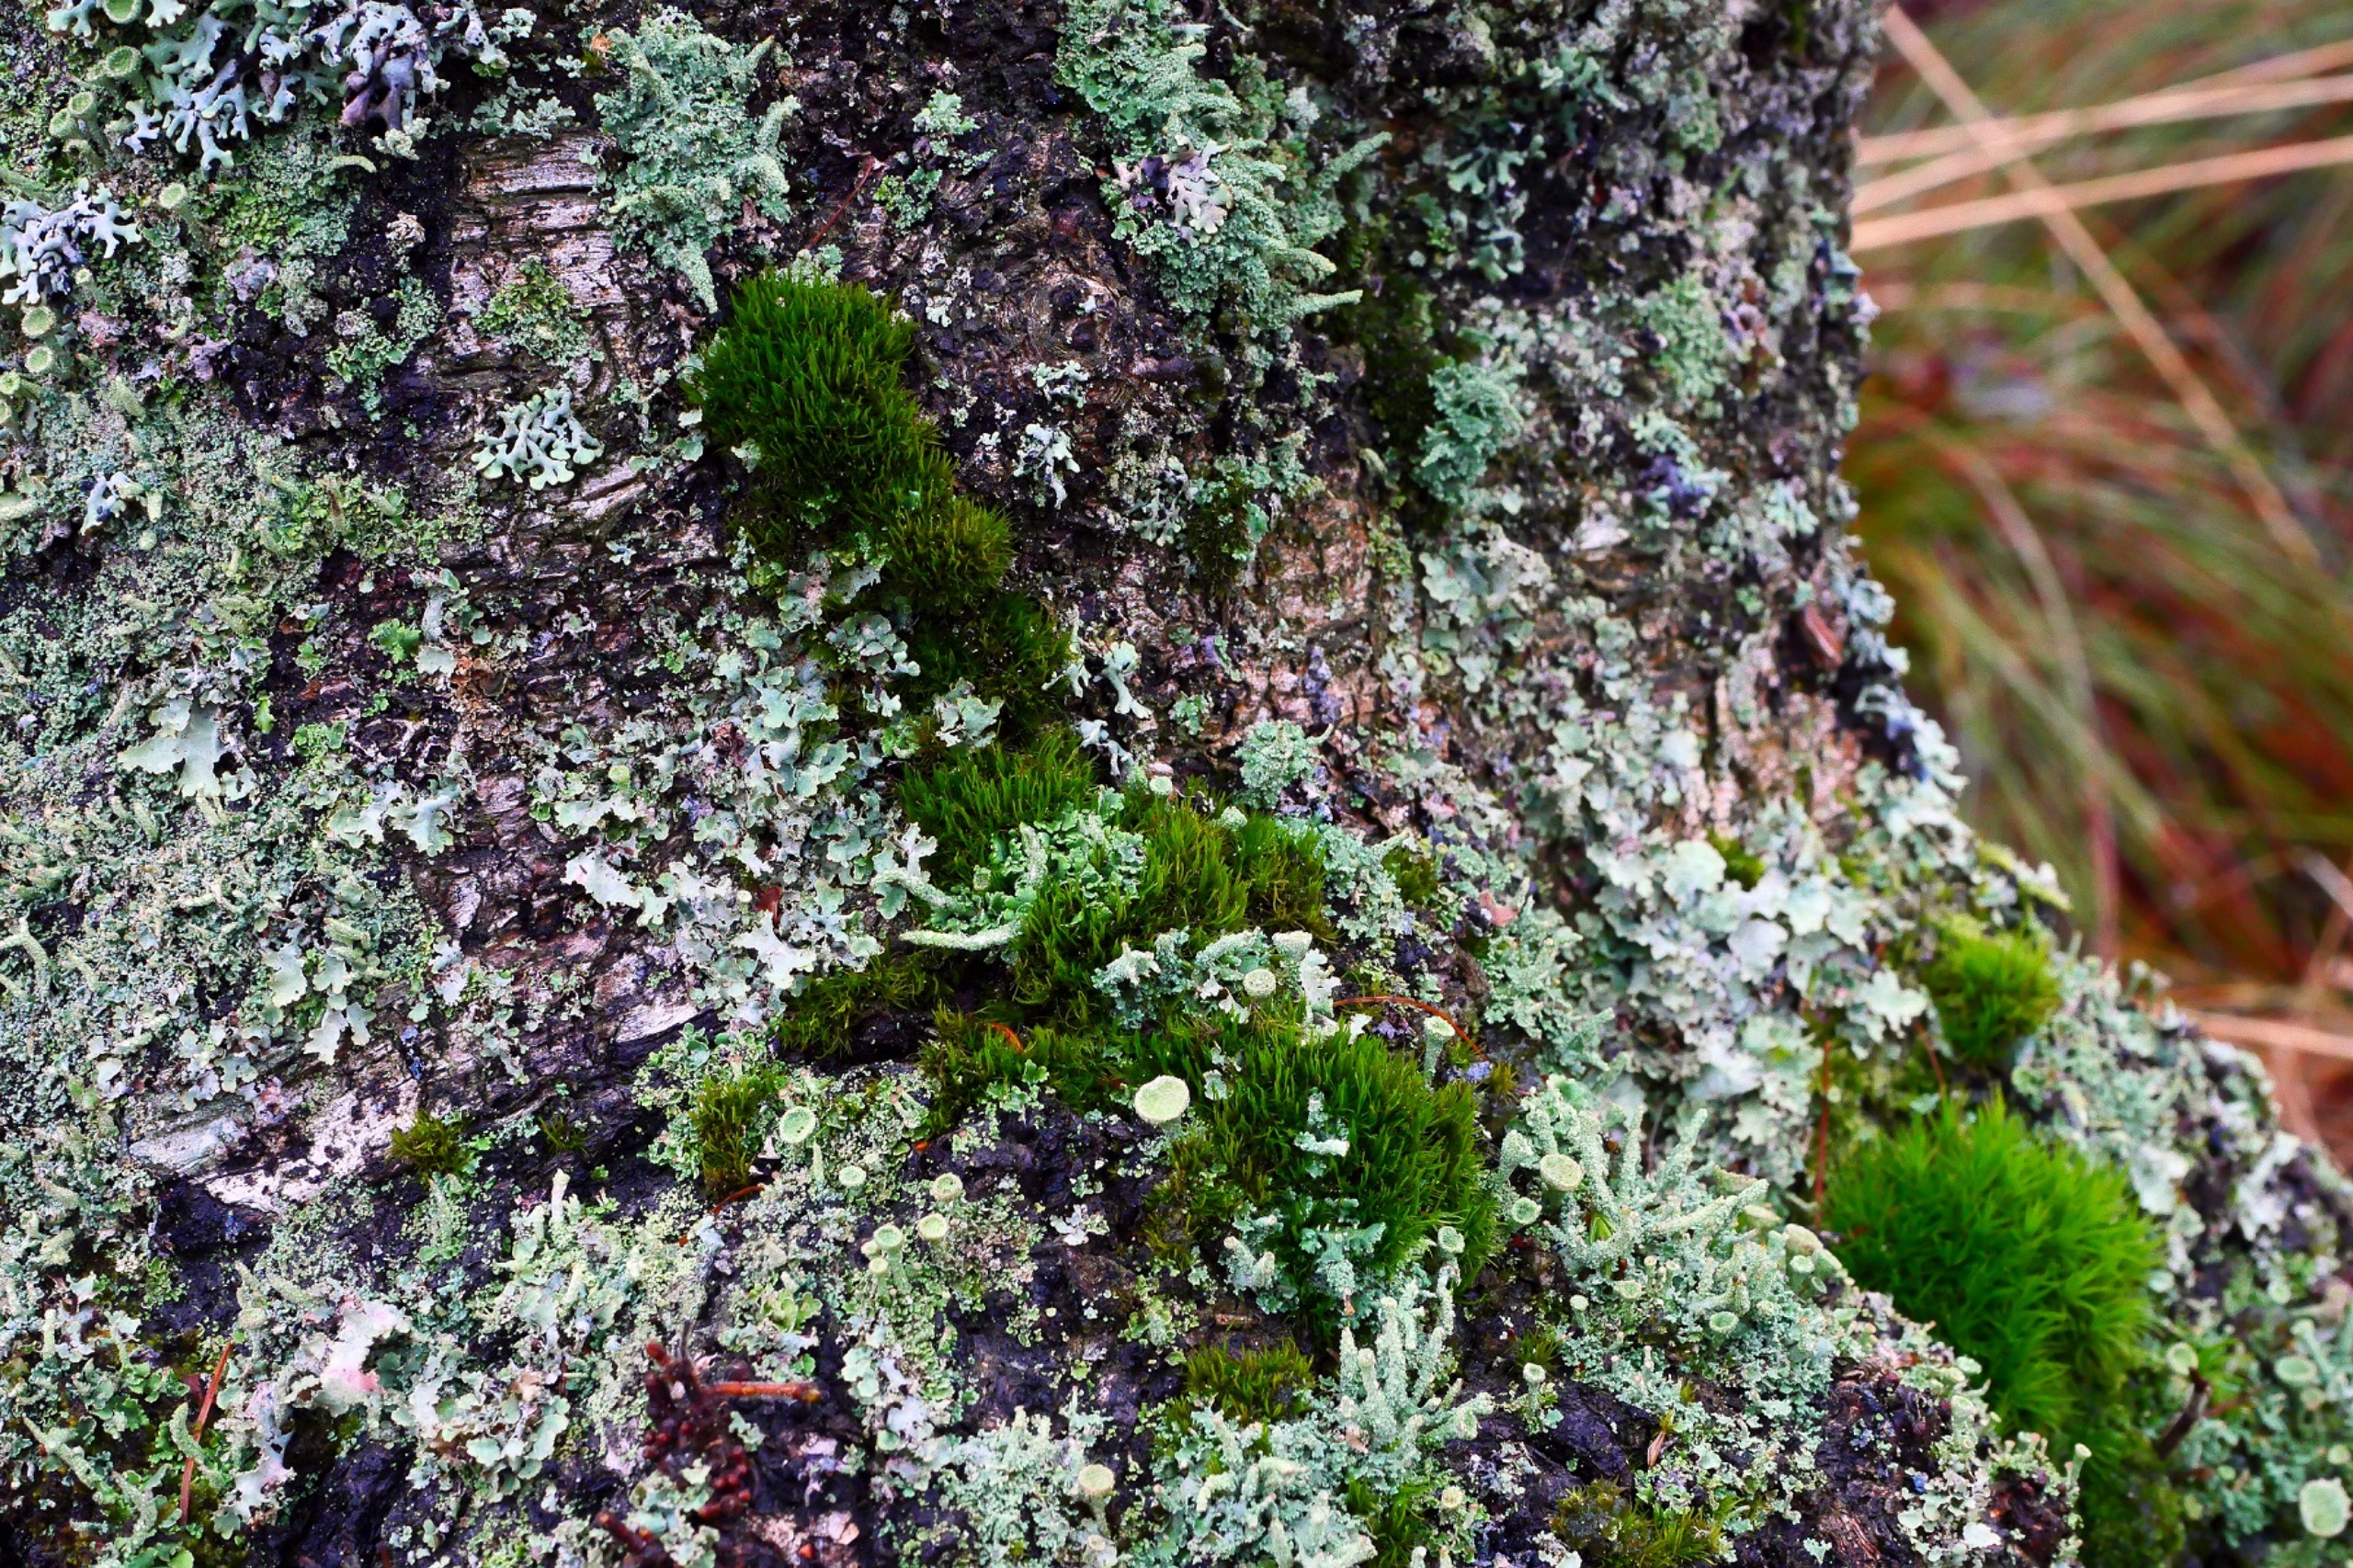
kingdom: Plantae
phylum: Bryophyta
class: Bryopsida
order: Dicranales
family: Dicranaceae
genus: Orthodicranum
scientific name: Orthodicranum flagellare
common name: Mangegrenet tyndvinge
